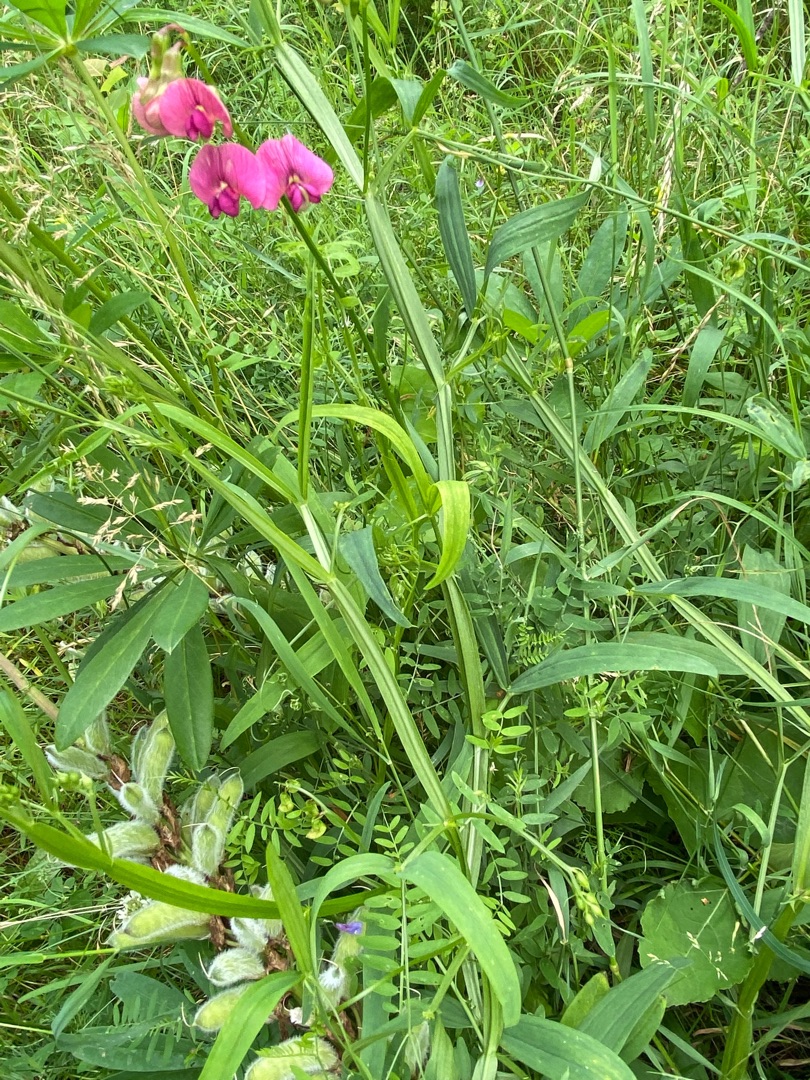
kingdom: Plantae
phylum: Tracheophyta
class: Magnoliopsida
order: Fabales
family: Fabaceae
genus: Lathyrus
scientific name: Lathyrus sylvestris
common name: Skov-fladbælg
